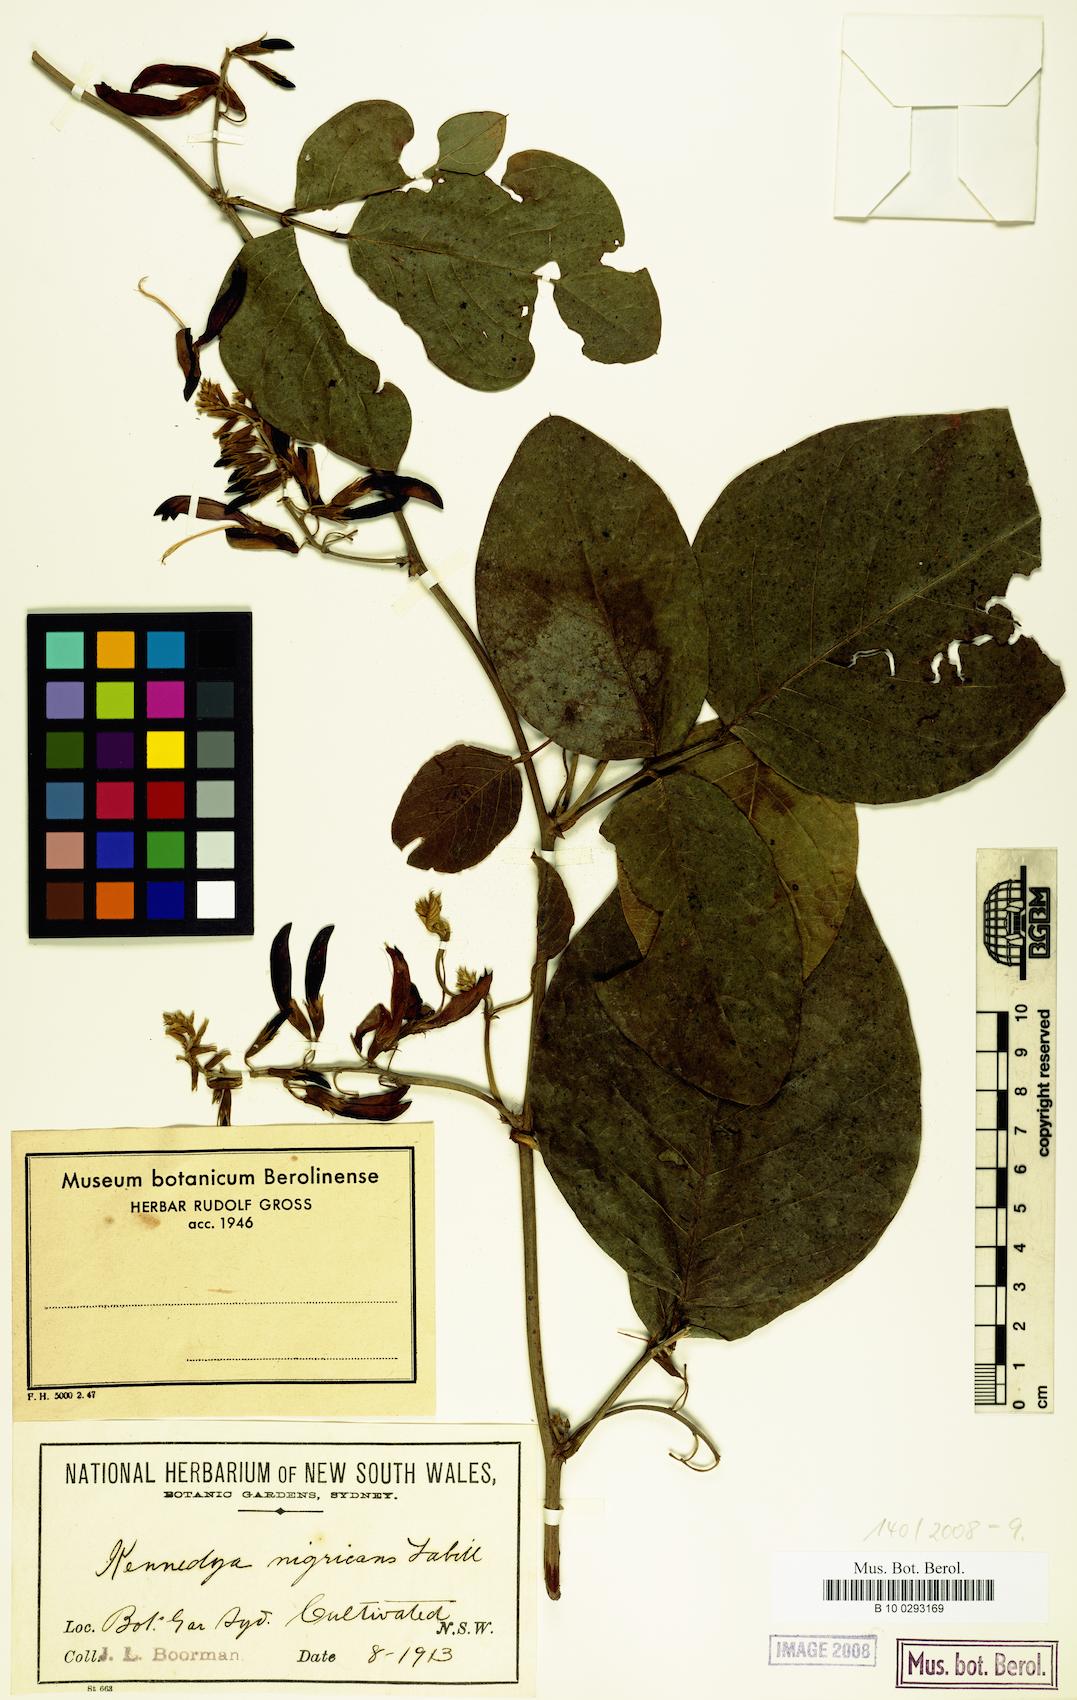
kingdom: Plantae
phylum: Tracheophyta
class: Magnoliopsida
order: Fabales
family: Fabaceae
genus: Kennedia
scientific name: Kennedia nigricans
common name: Black-bean
